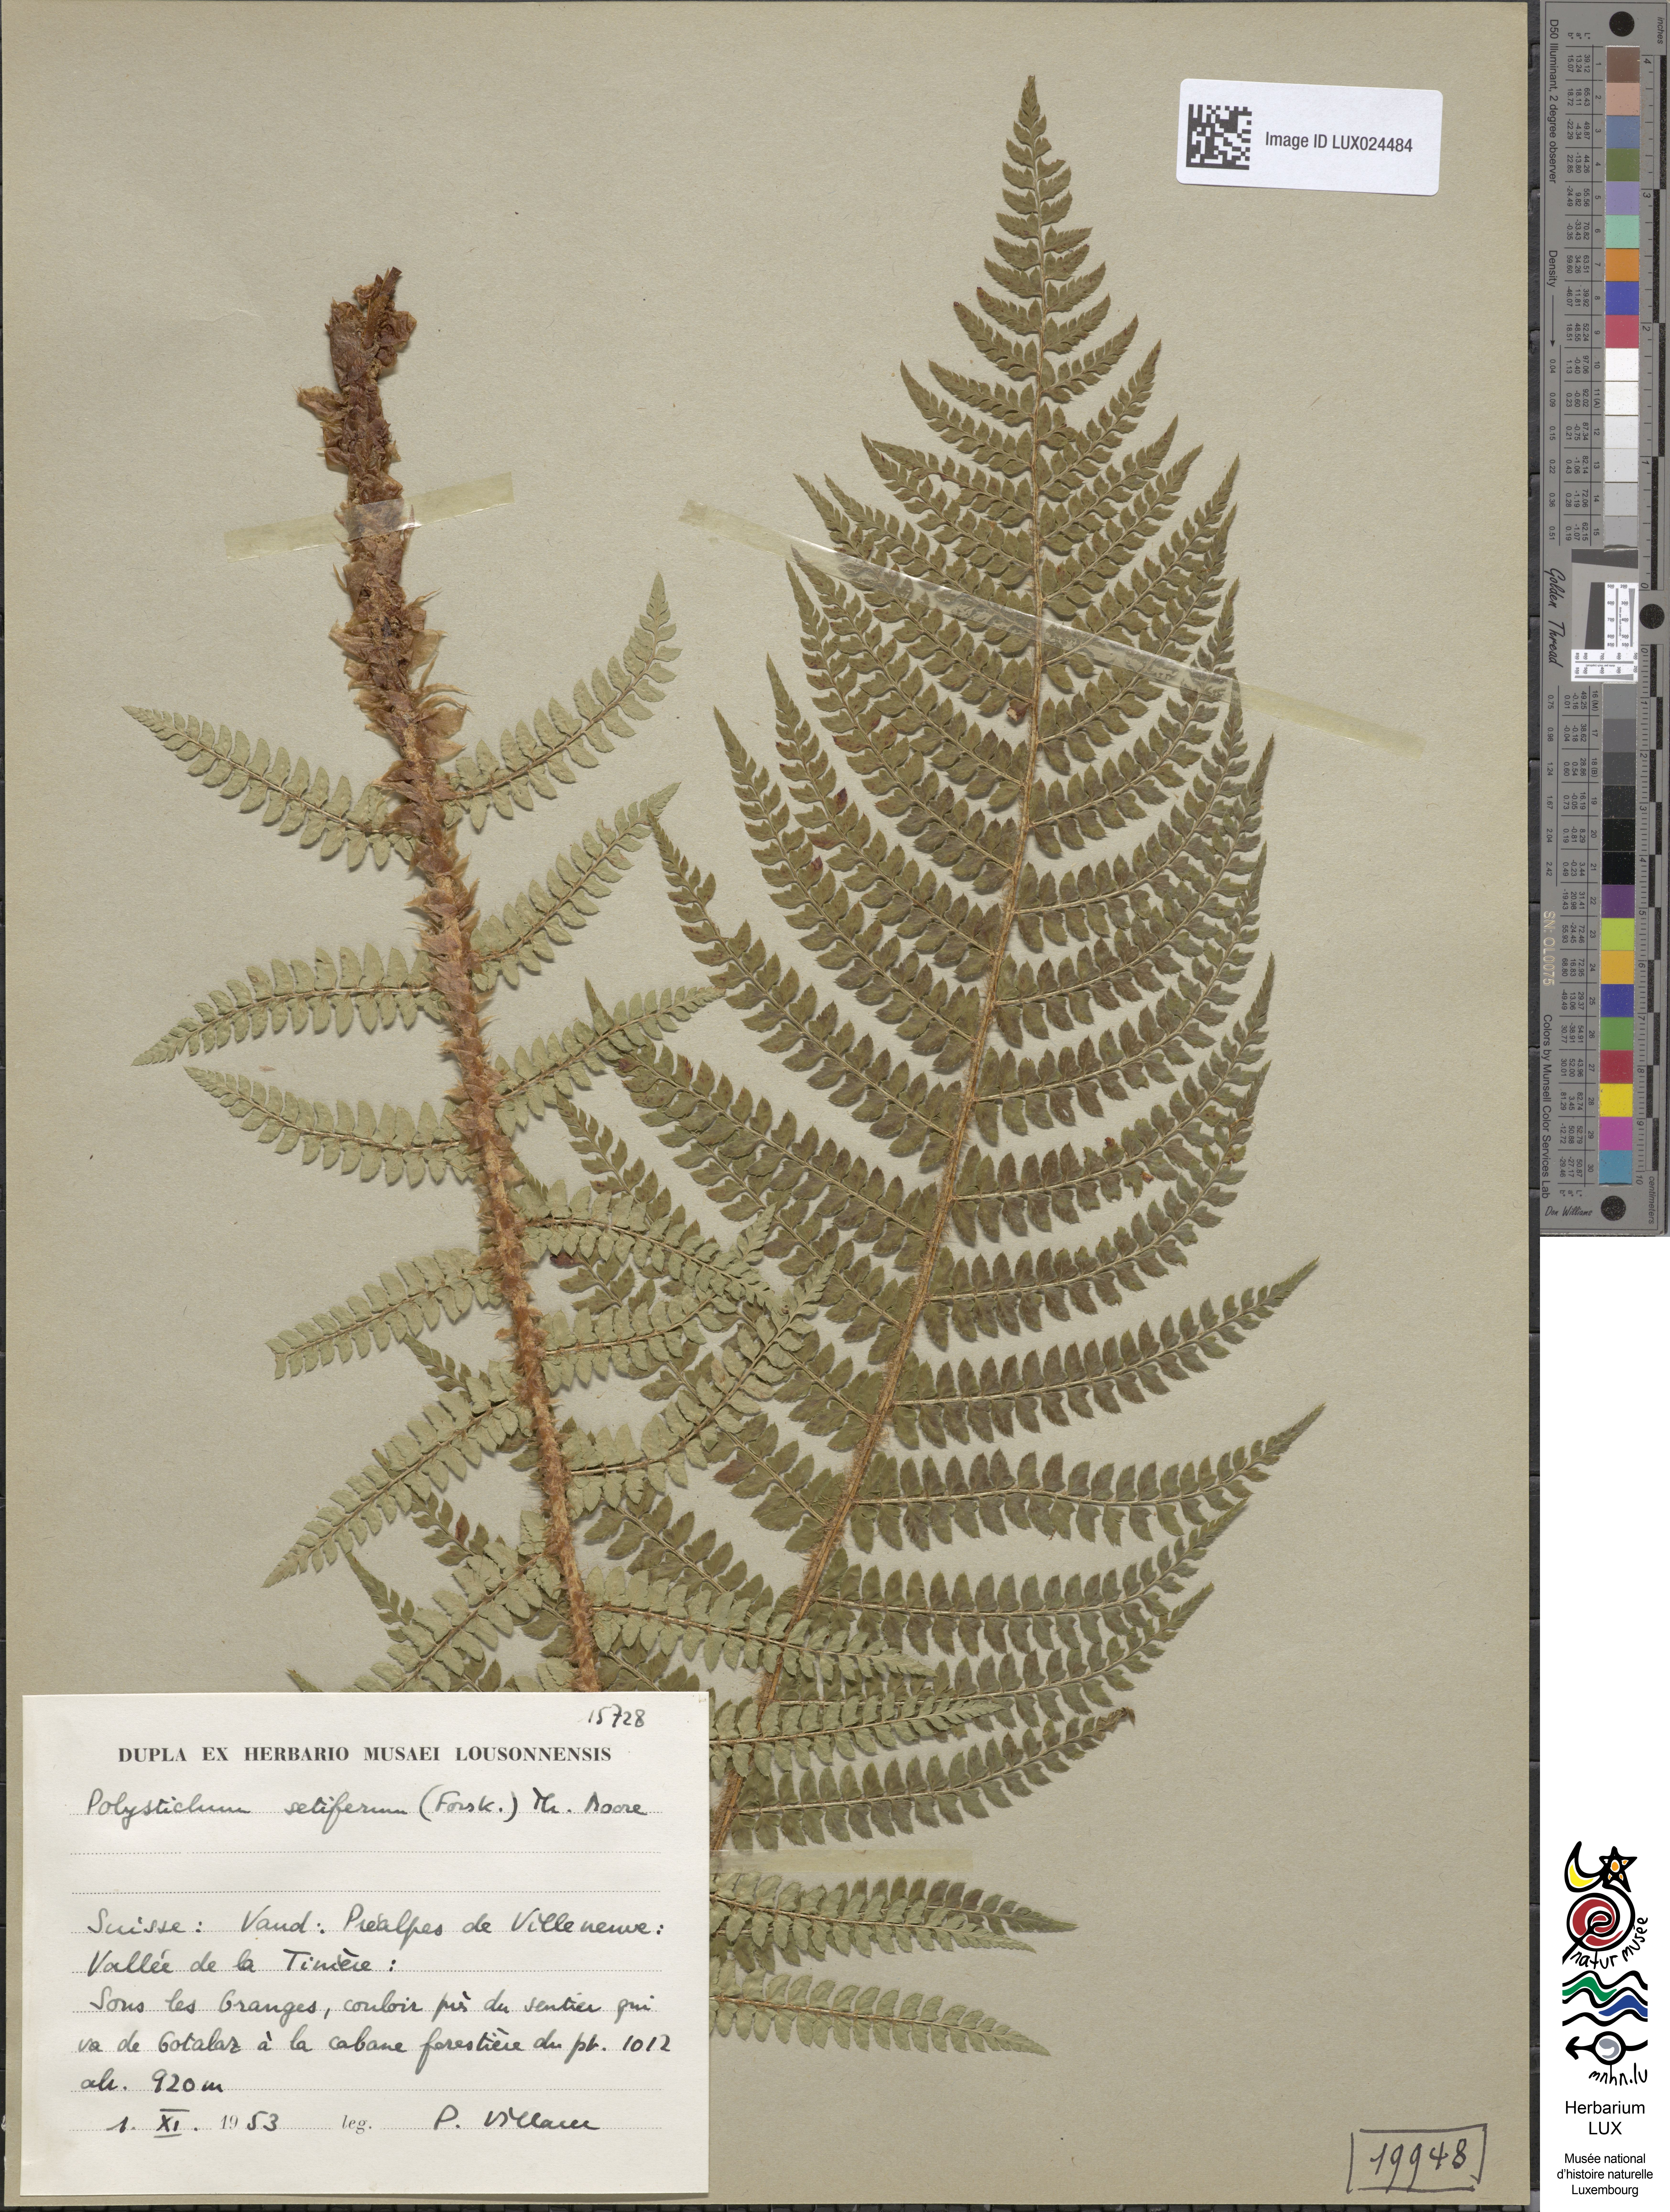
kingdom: Plantae
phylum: Tracheophyta
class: Polypodiopsida
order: Polypodiales
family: Dryopteridaceae
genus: Polystichum
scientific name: Polystichum setiferum
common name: Soft shield-fern
